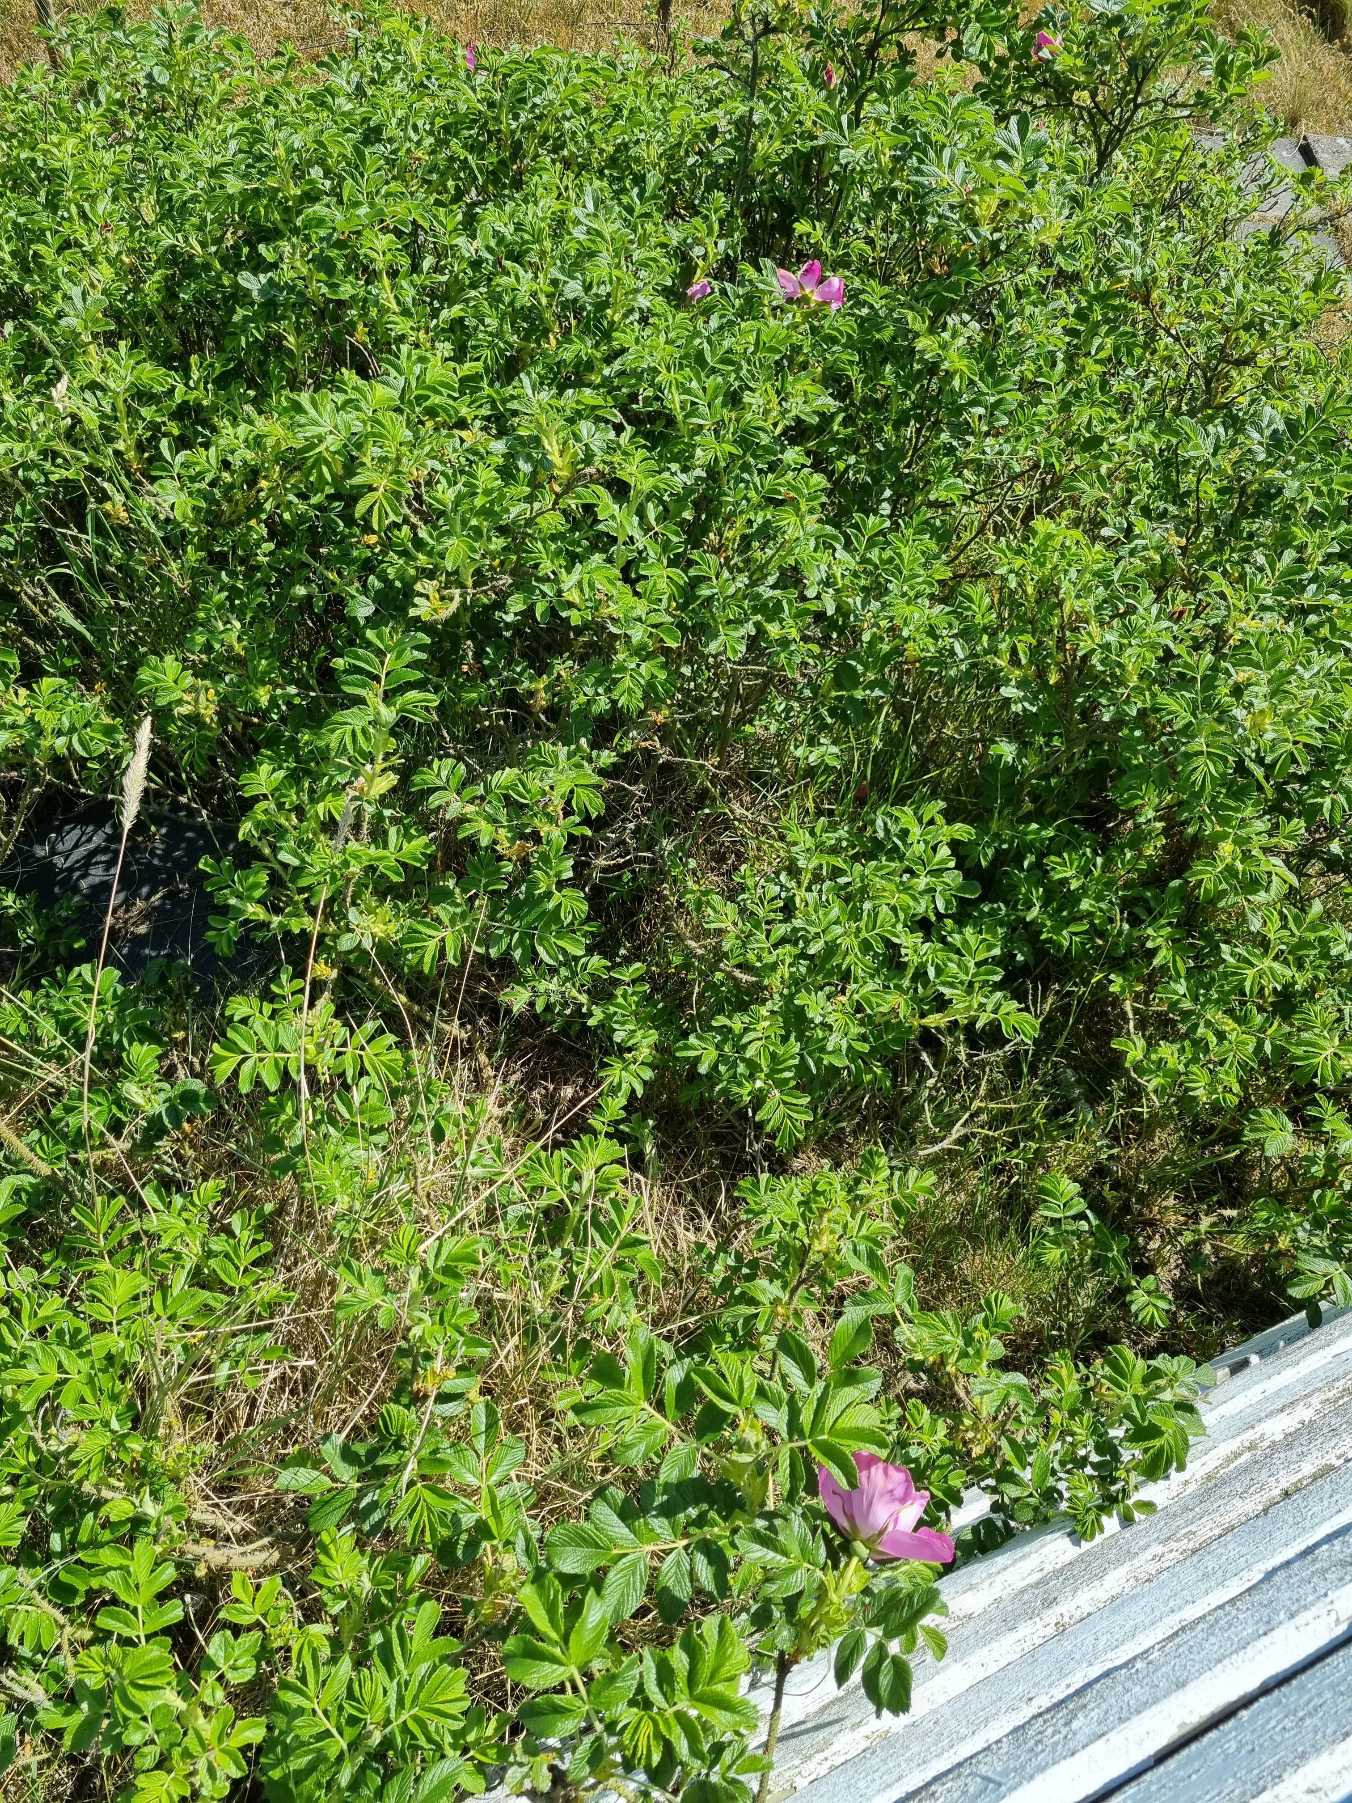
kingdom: Plantae
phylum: Tracheophyta
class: Magnoliopsida
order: Rosales
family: Rosaceae
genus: Rosa
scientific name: Rosa rugosa
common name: Rynket rose
